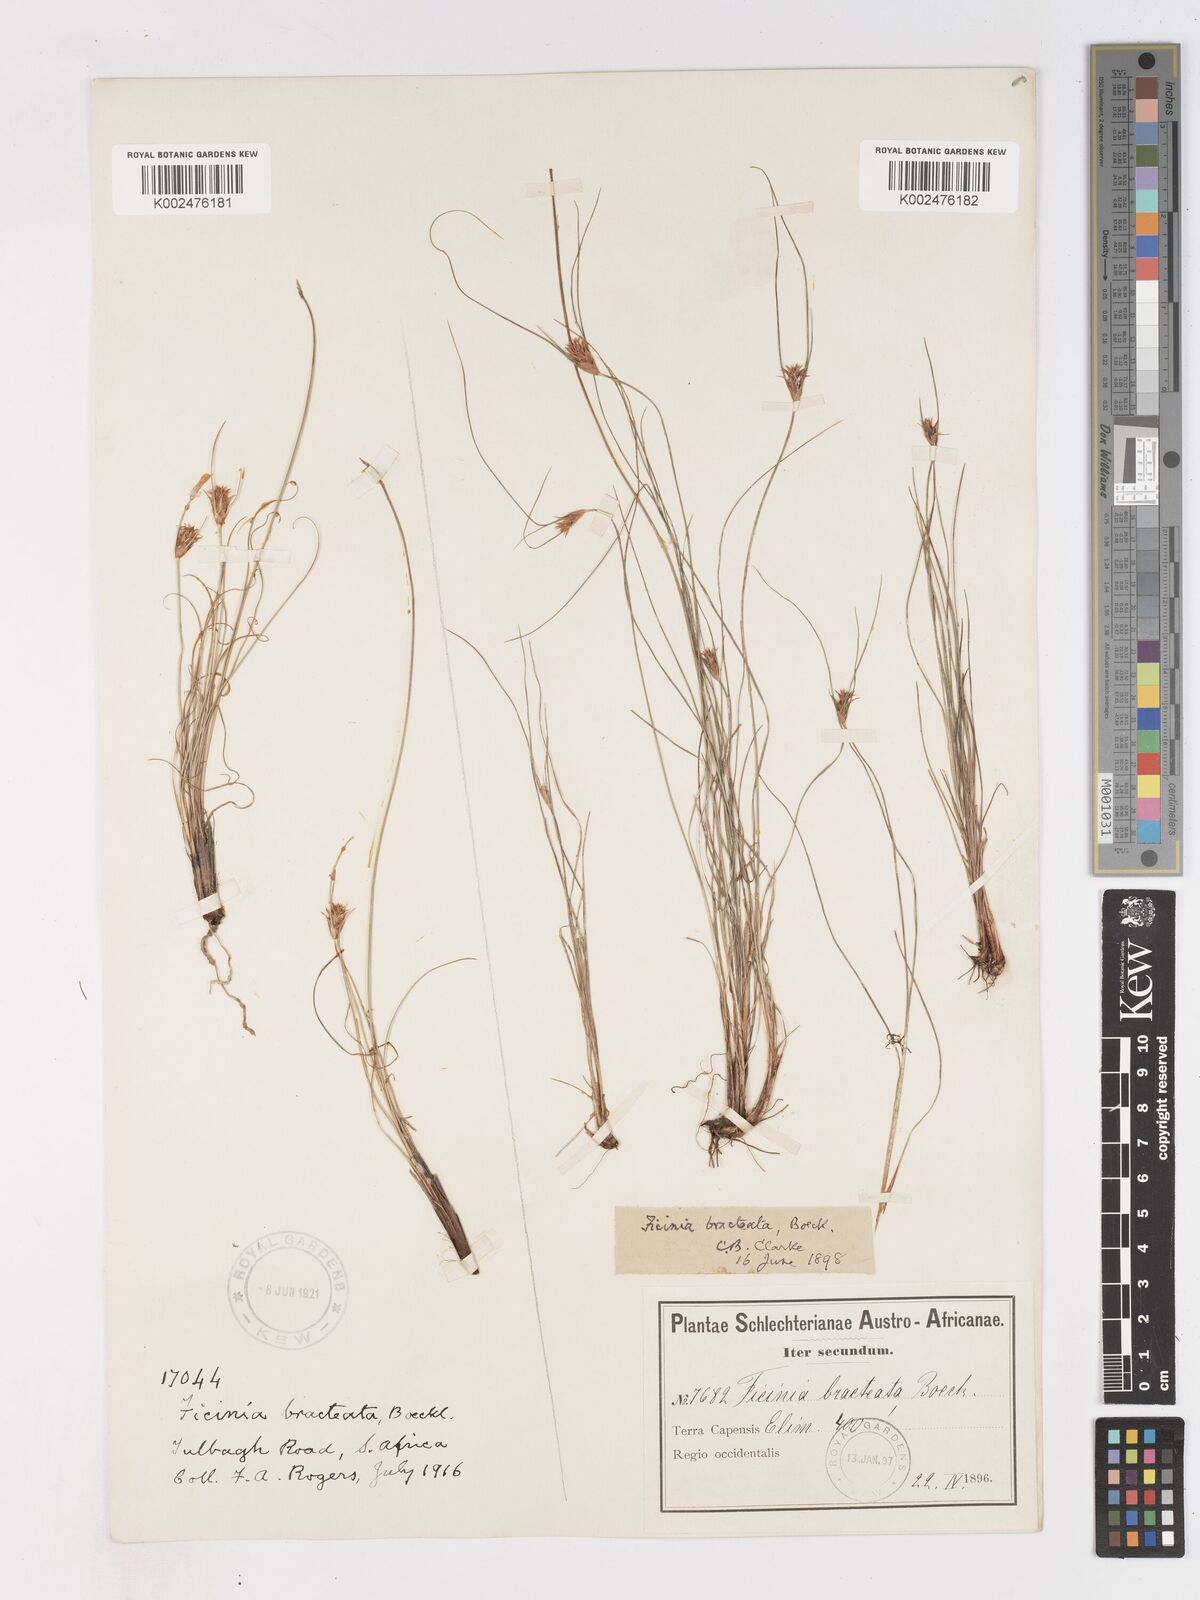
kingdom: Plantae
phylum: Tracheophyta
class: Liliopsida
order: Poales
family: Cyperaceae
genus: Ficinia
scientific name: Ficinia nigrescens
